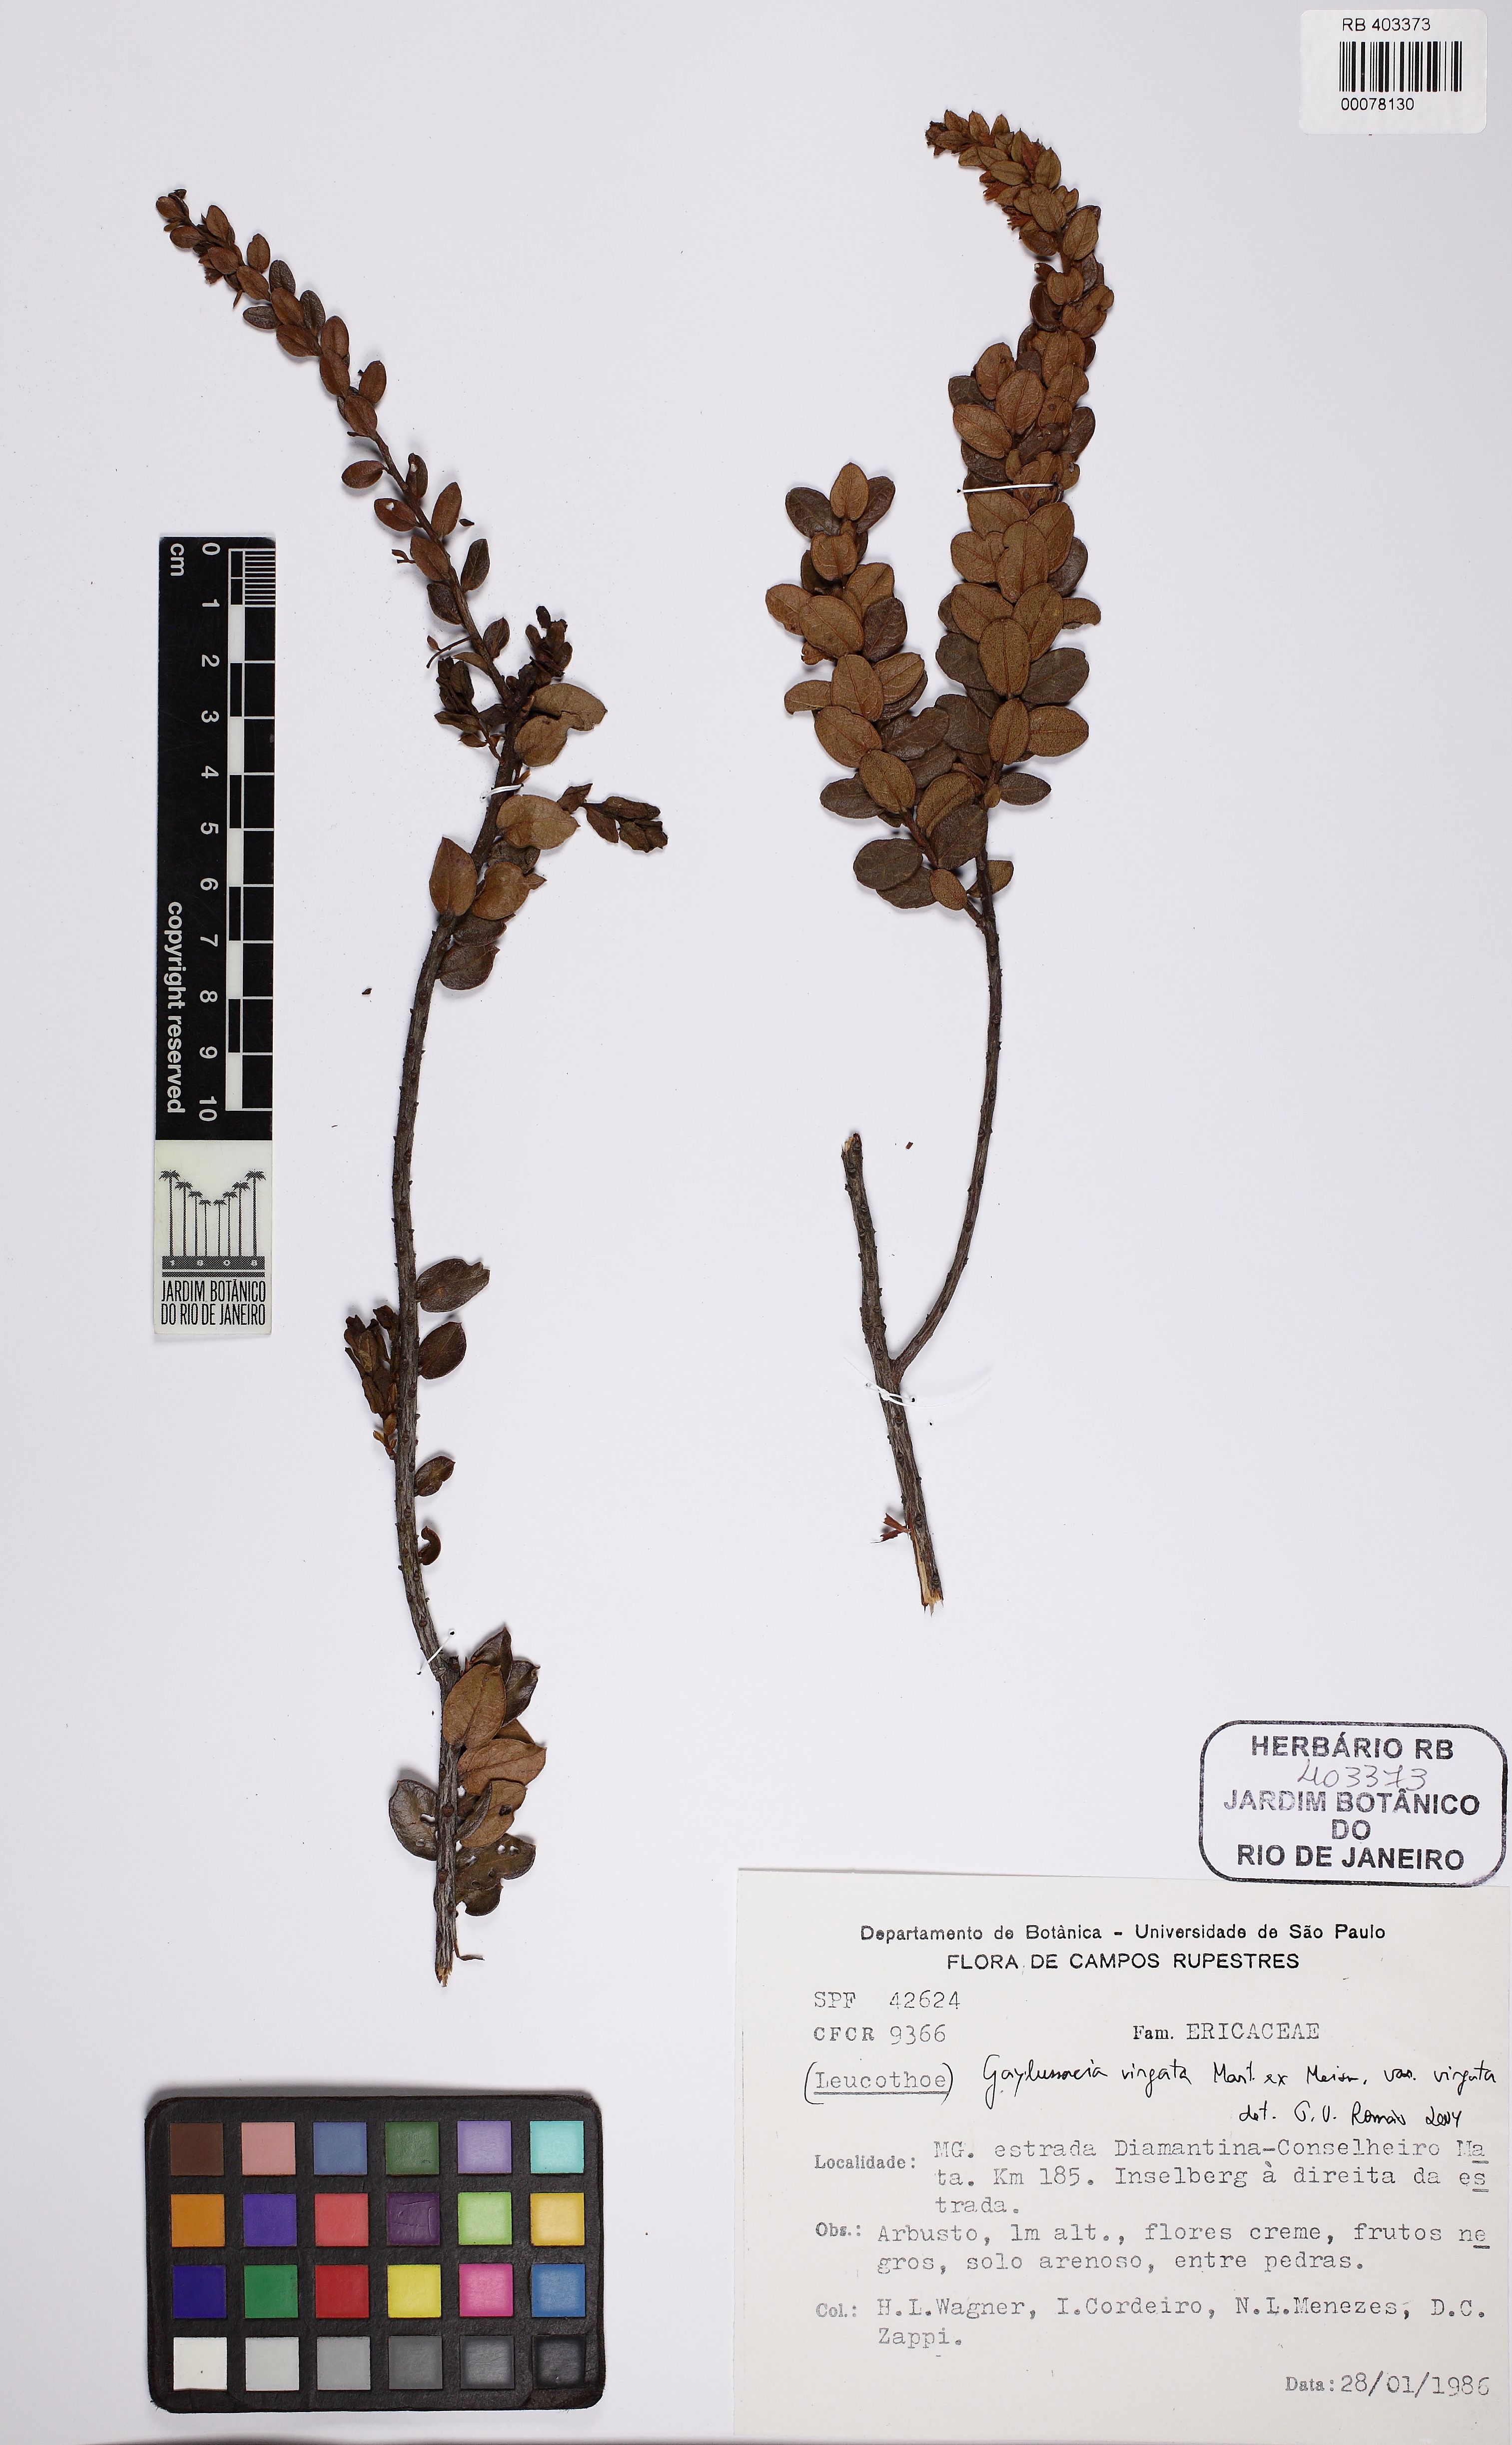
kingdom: Plantae
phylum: Tracheophyta
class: Magnoliopsida
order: Ericales
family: Ericaceae
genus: Gaylussacia
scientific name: Gaylussacia virgata
